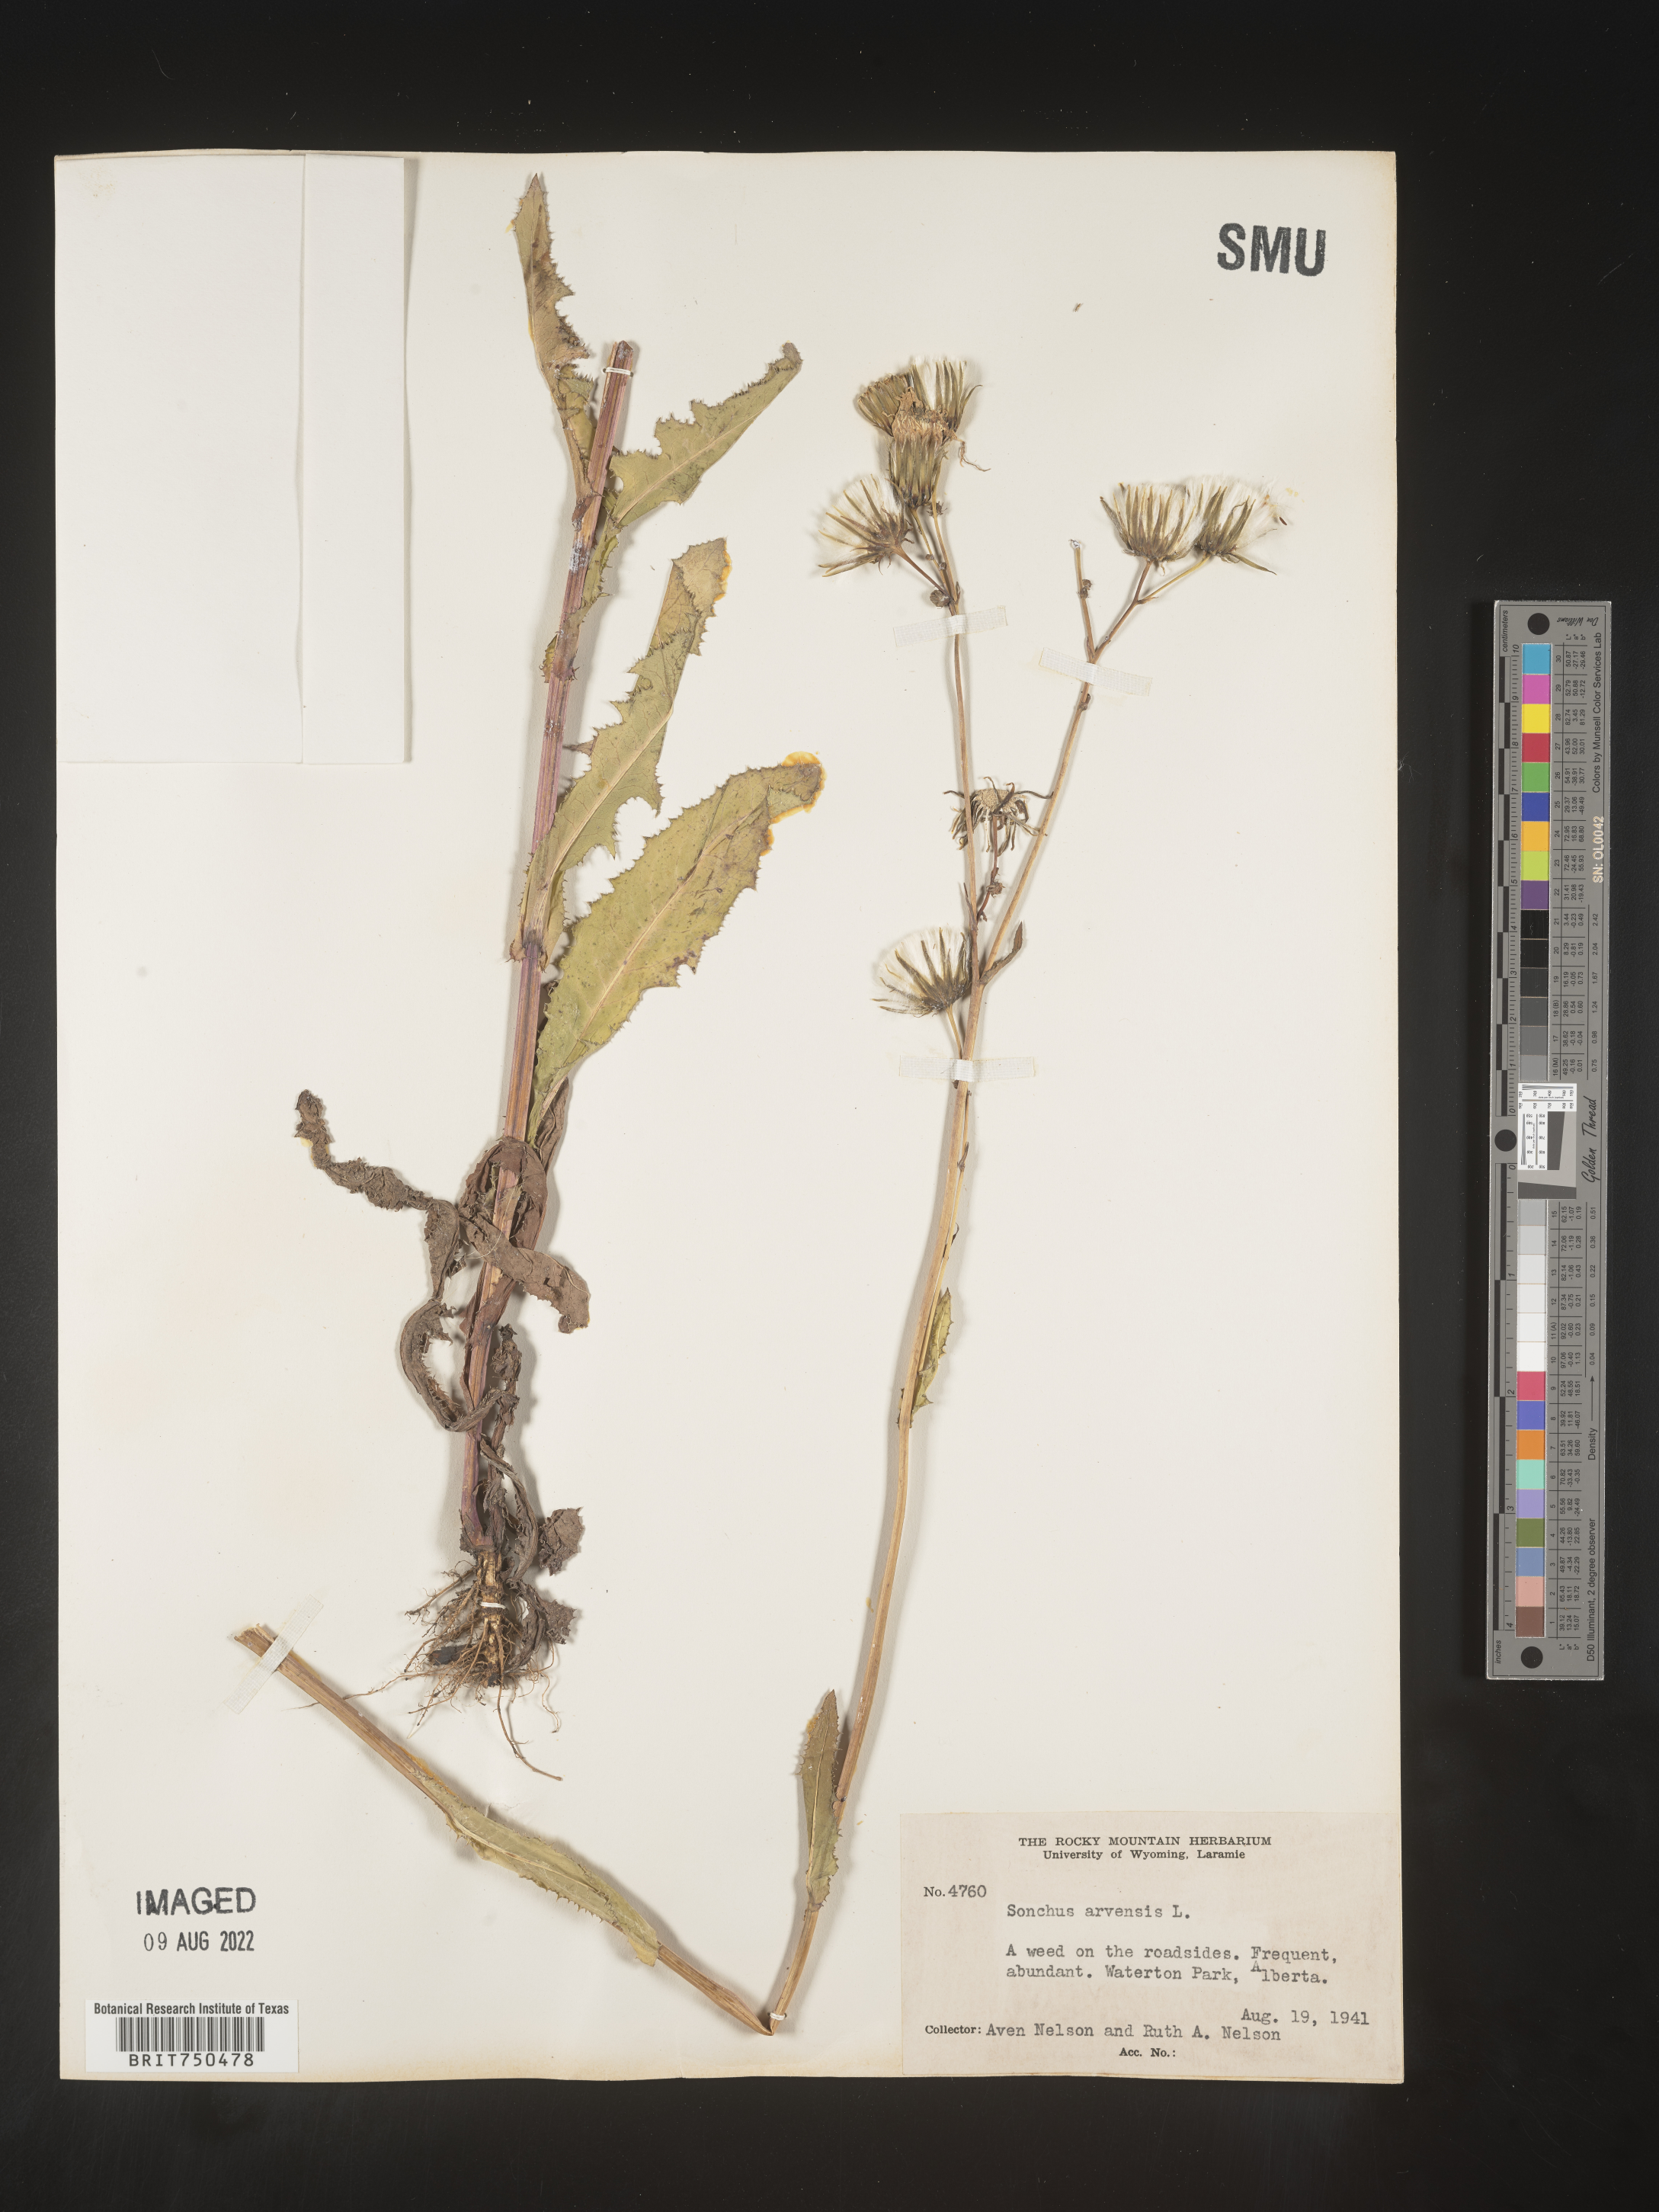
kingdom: Plantae
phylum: Tracheophyta
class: Magnoliopsida
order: Asterales
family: Asteraceae
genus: Sonchus
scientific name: Sonchus arvensis
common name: Perennial sow-thistle
